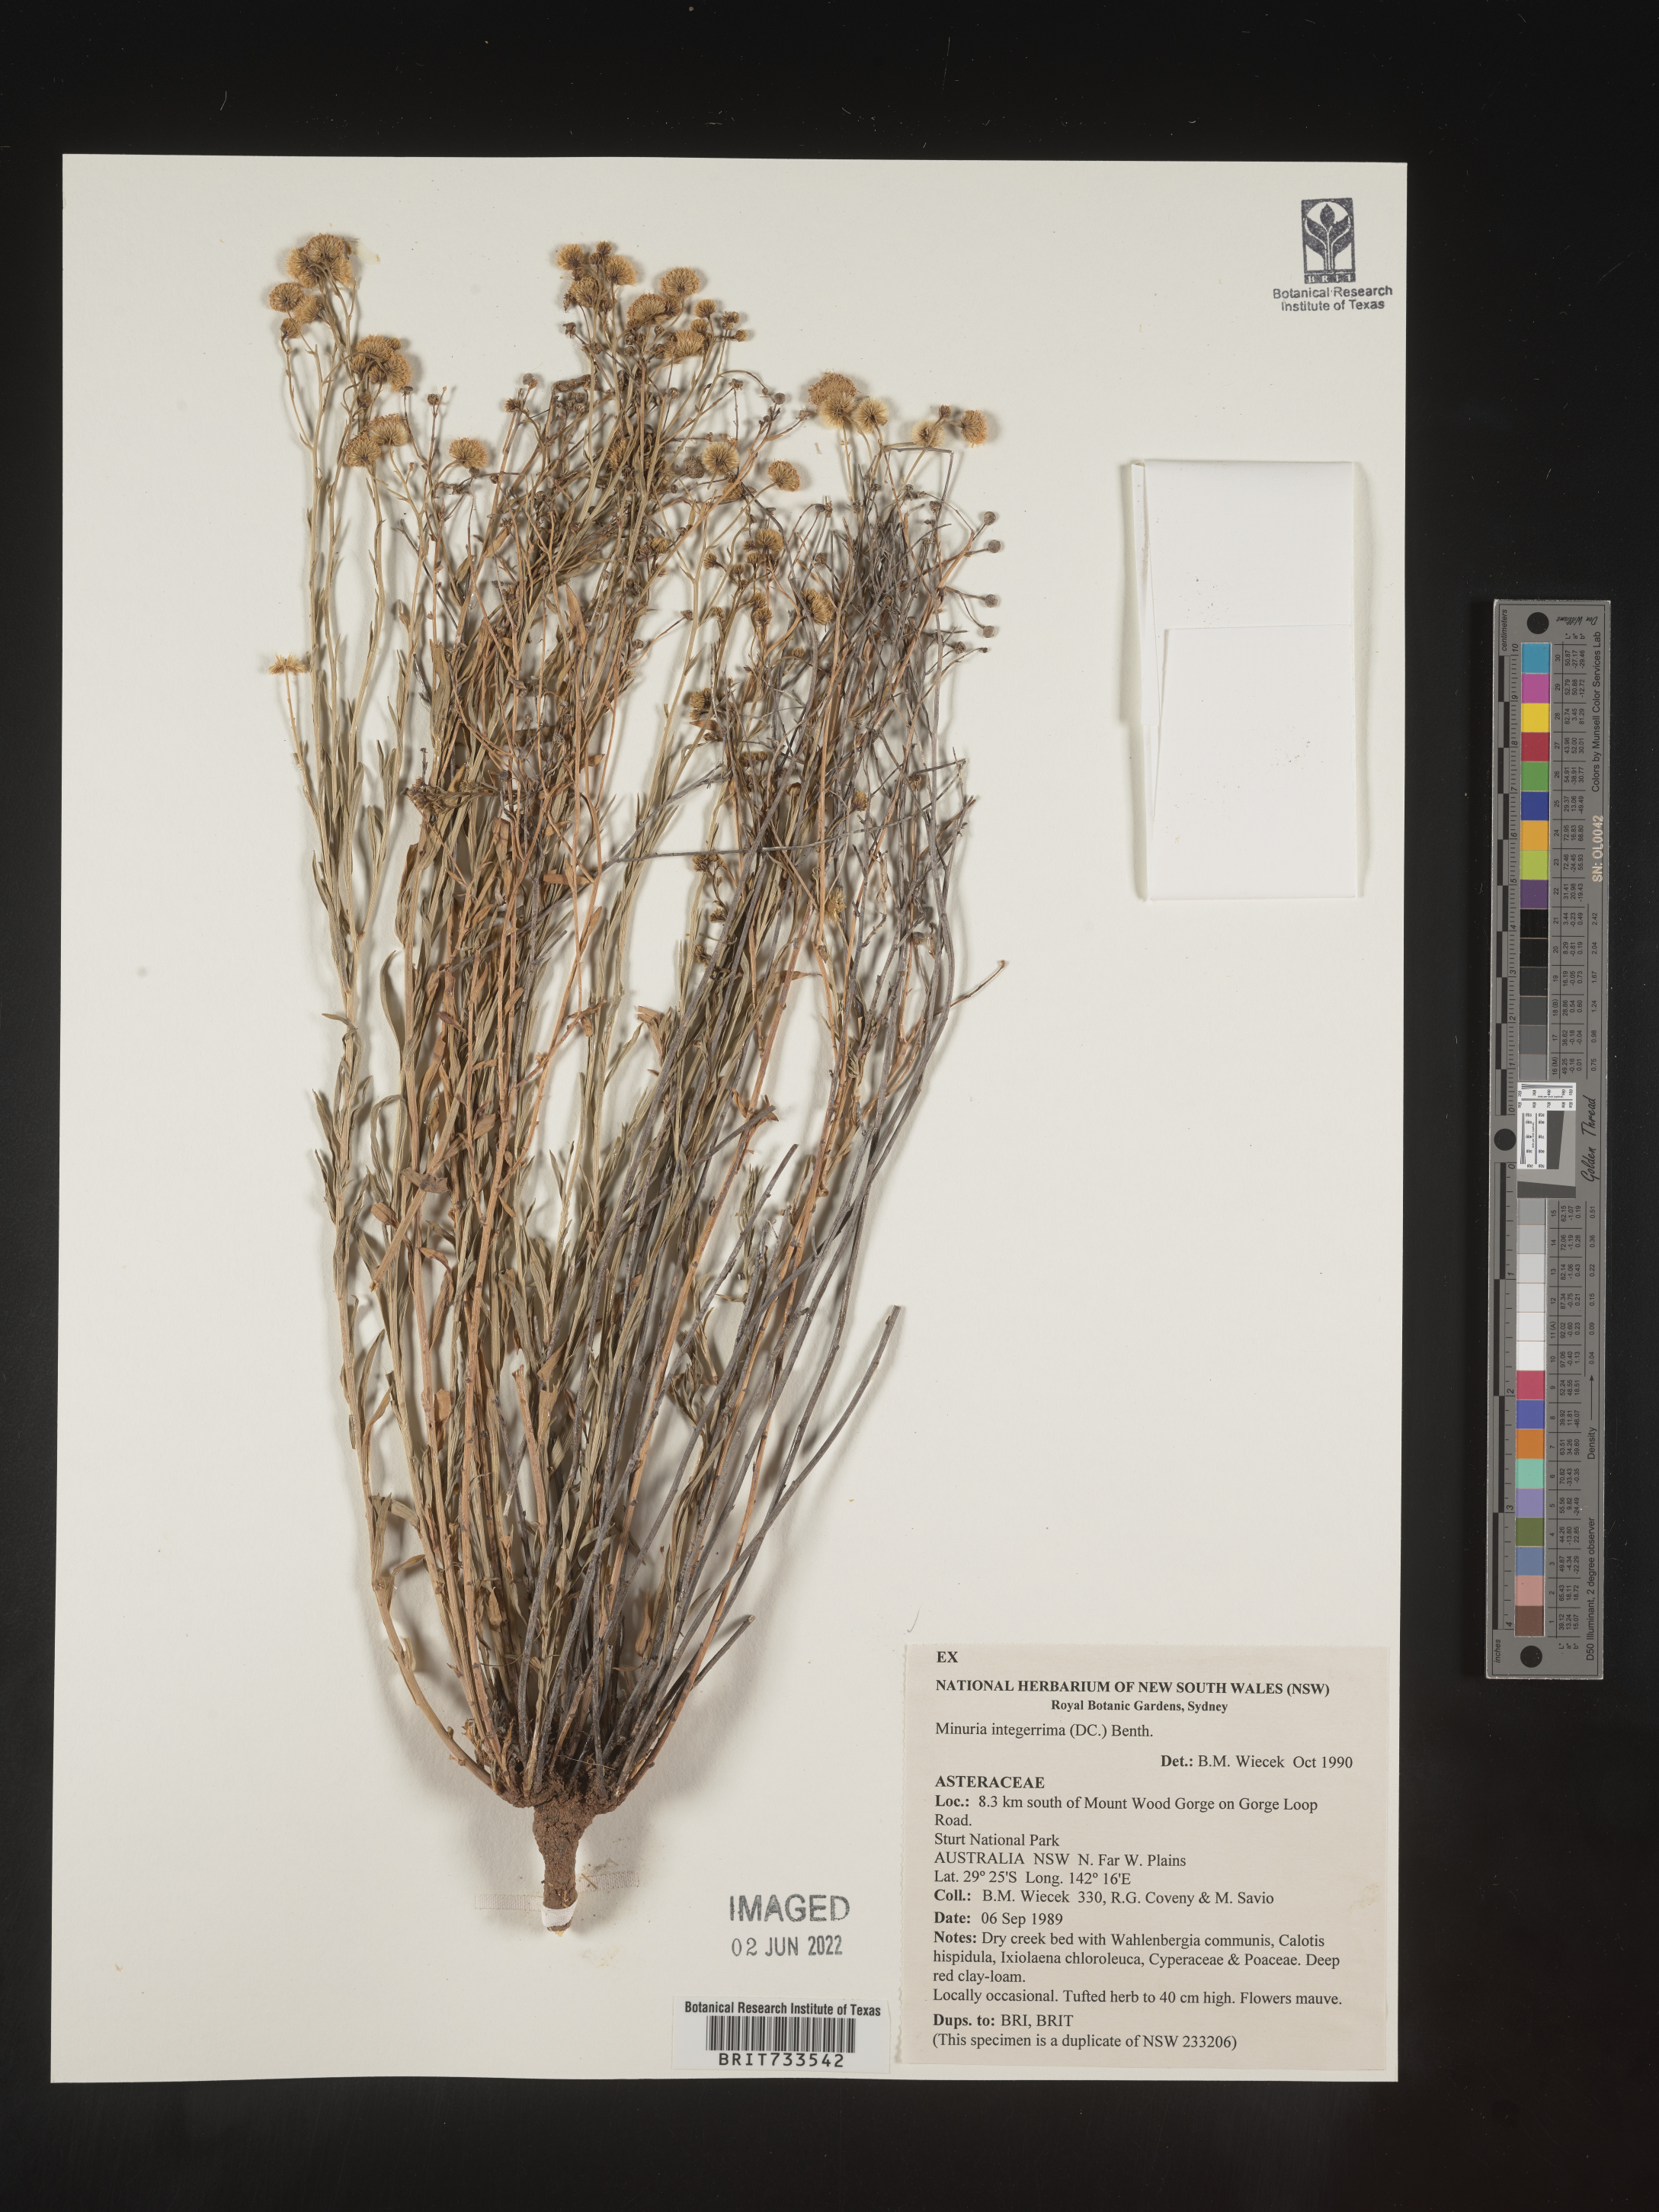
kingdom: Plantae
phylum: Tracheophyta
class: Magnoliopsida
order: Gentianales
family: Apocynaceae
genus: Minaria
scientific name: Minaria
